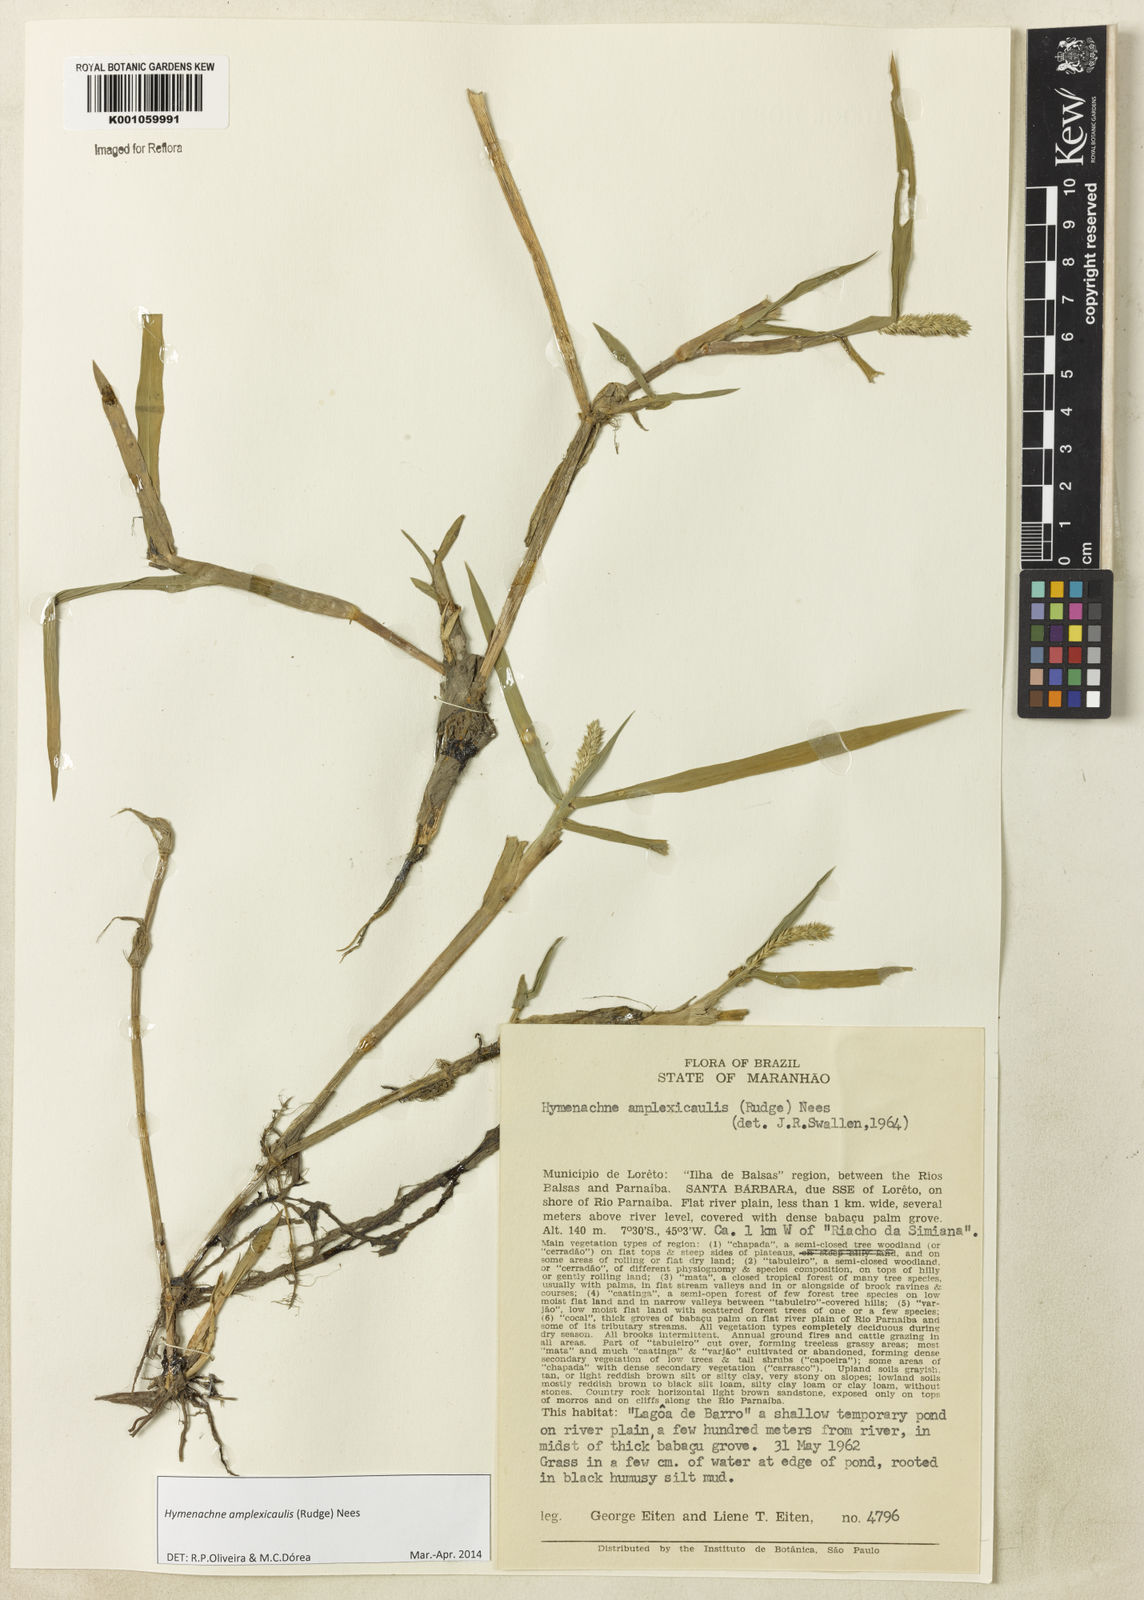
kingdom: Plantae
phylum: Tracheophyta
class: Liliopsida
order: Poales
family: Poaceae
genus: Hymenachne
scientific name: Hymenachne amplexicaulis
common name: Olive hymenachne
